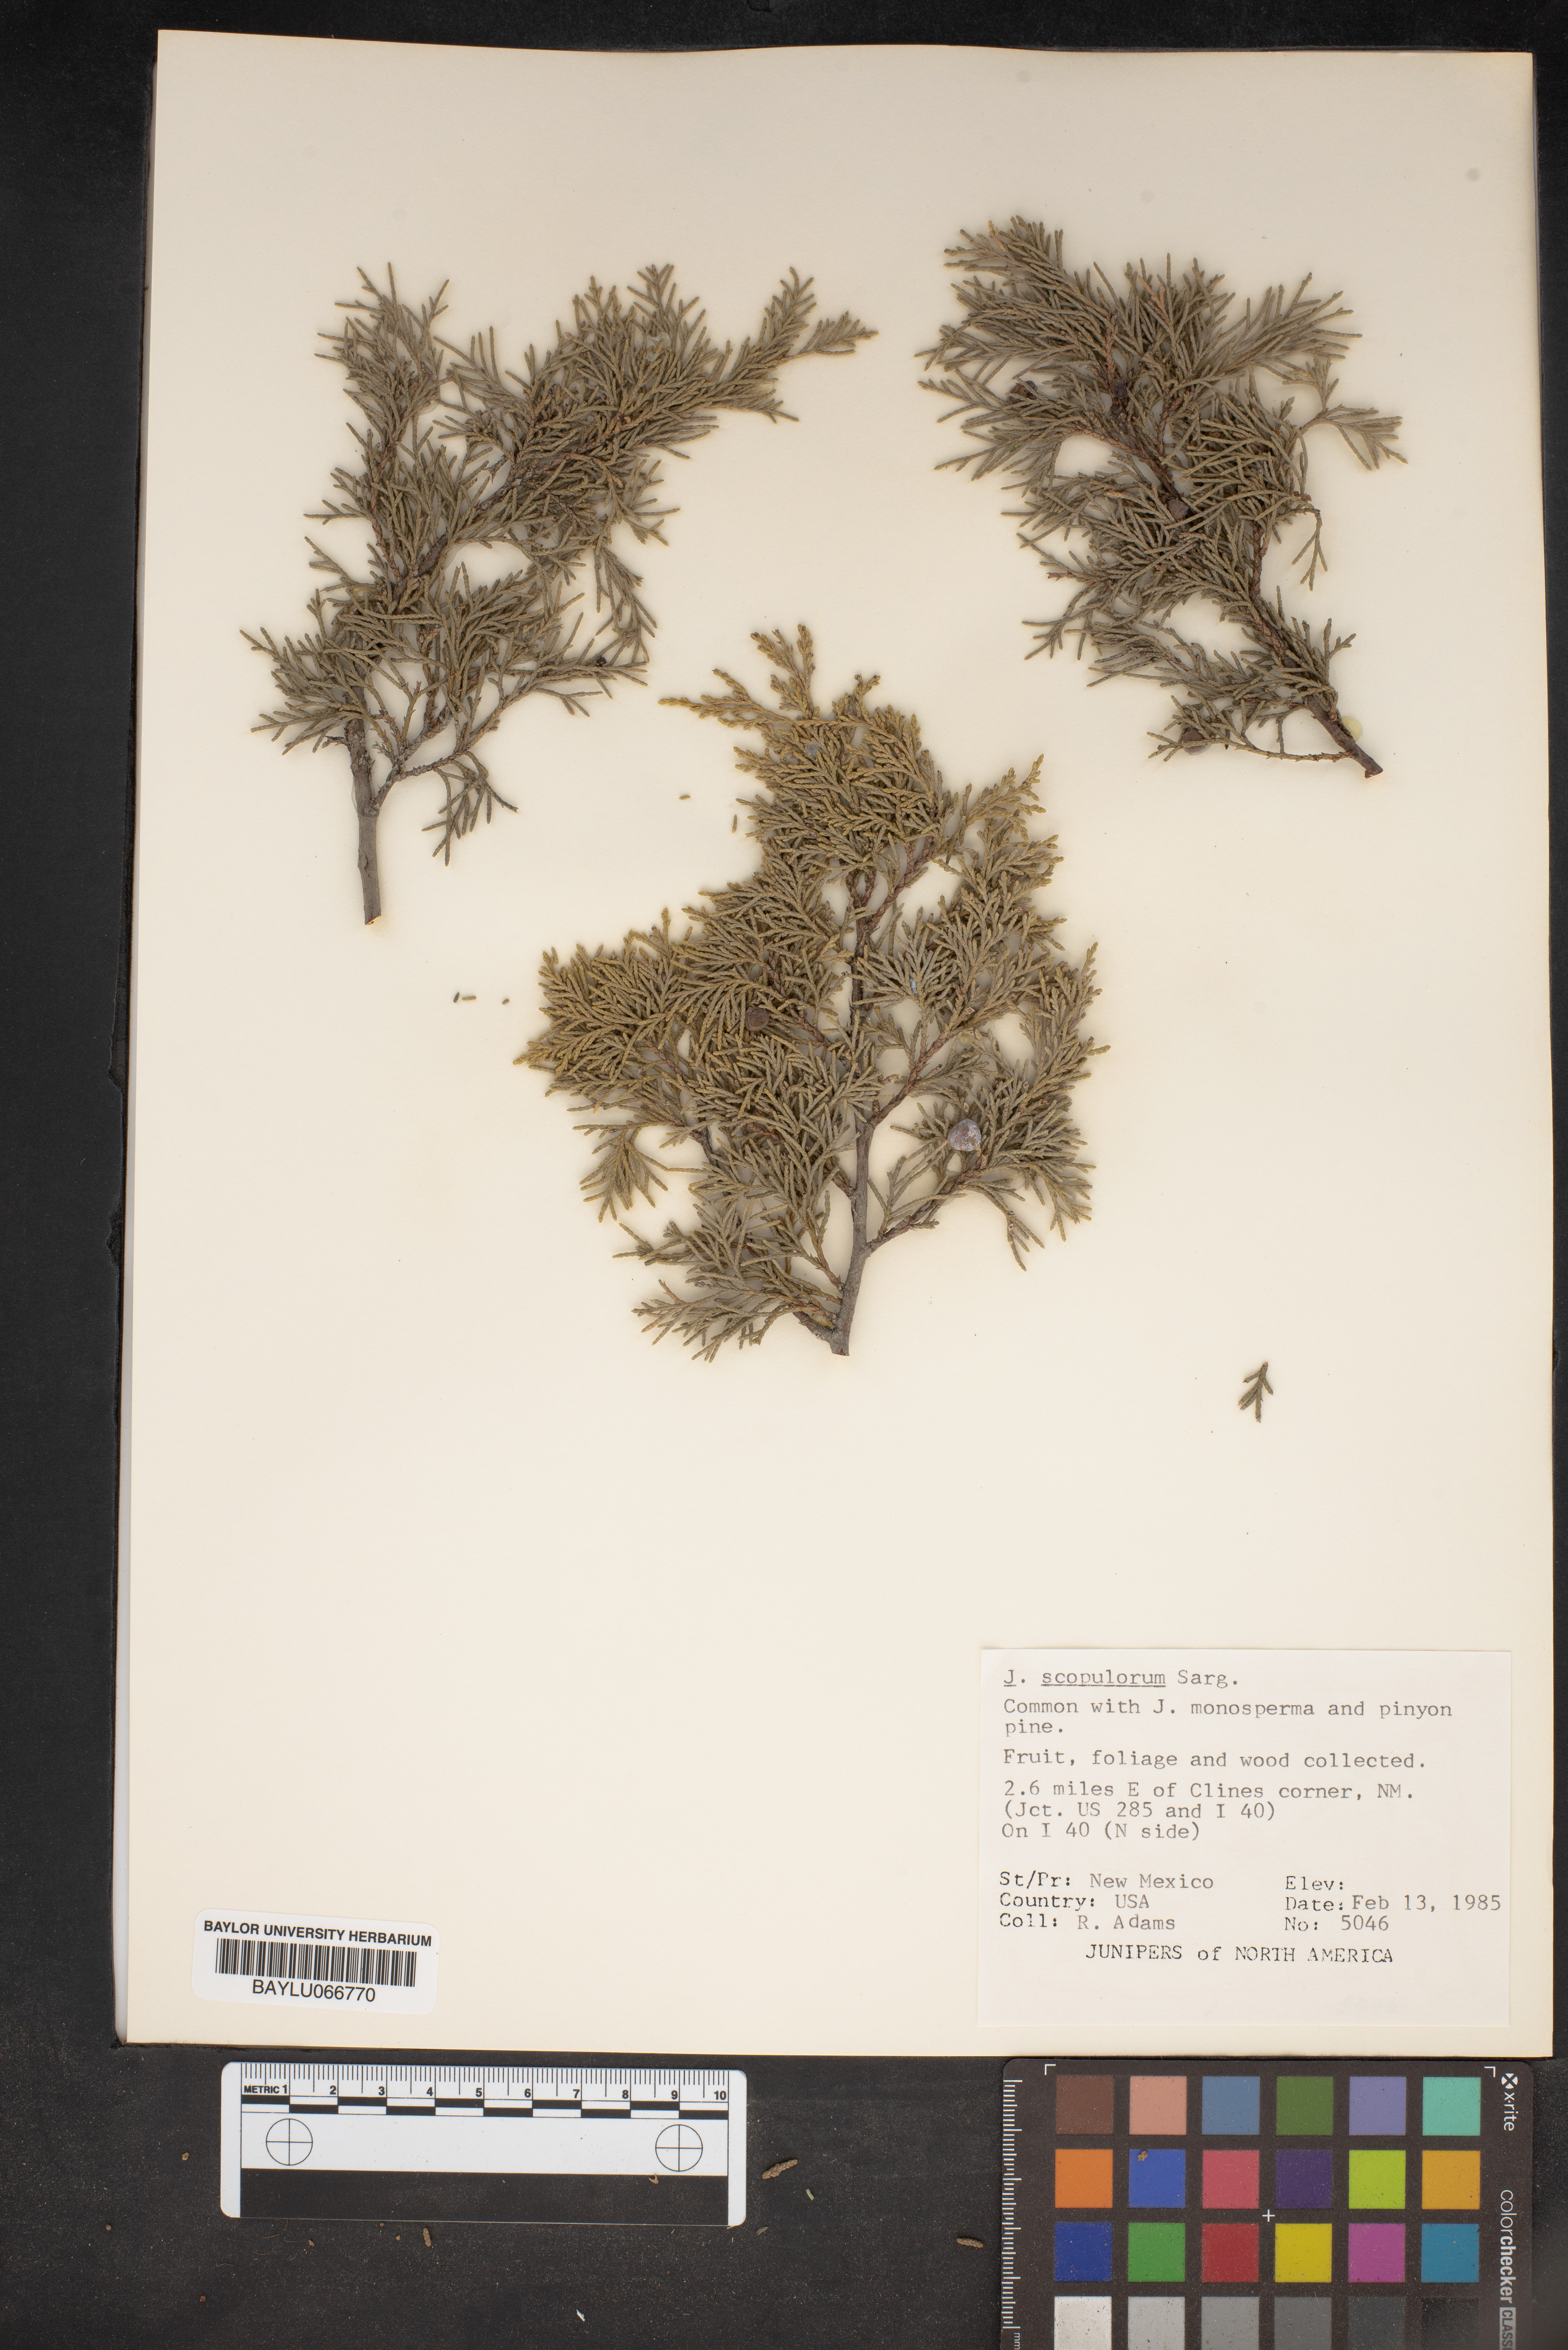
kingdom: Plantae
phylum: Tracheophyta
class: Pinopsida
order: Pinales
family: Cupressaceae
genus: Juniperus
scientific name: Juniperus scopulorum
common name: Rocky mountain juniper
